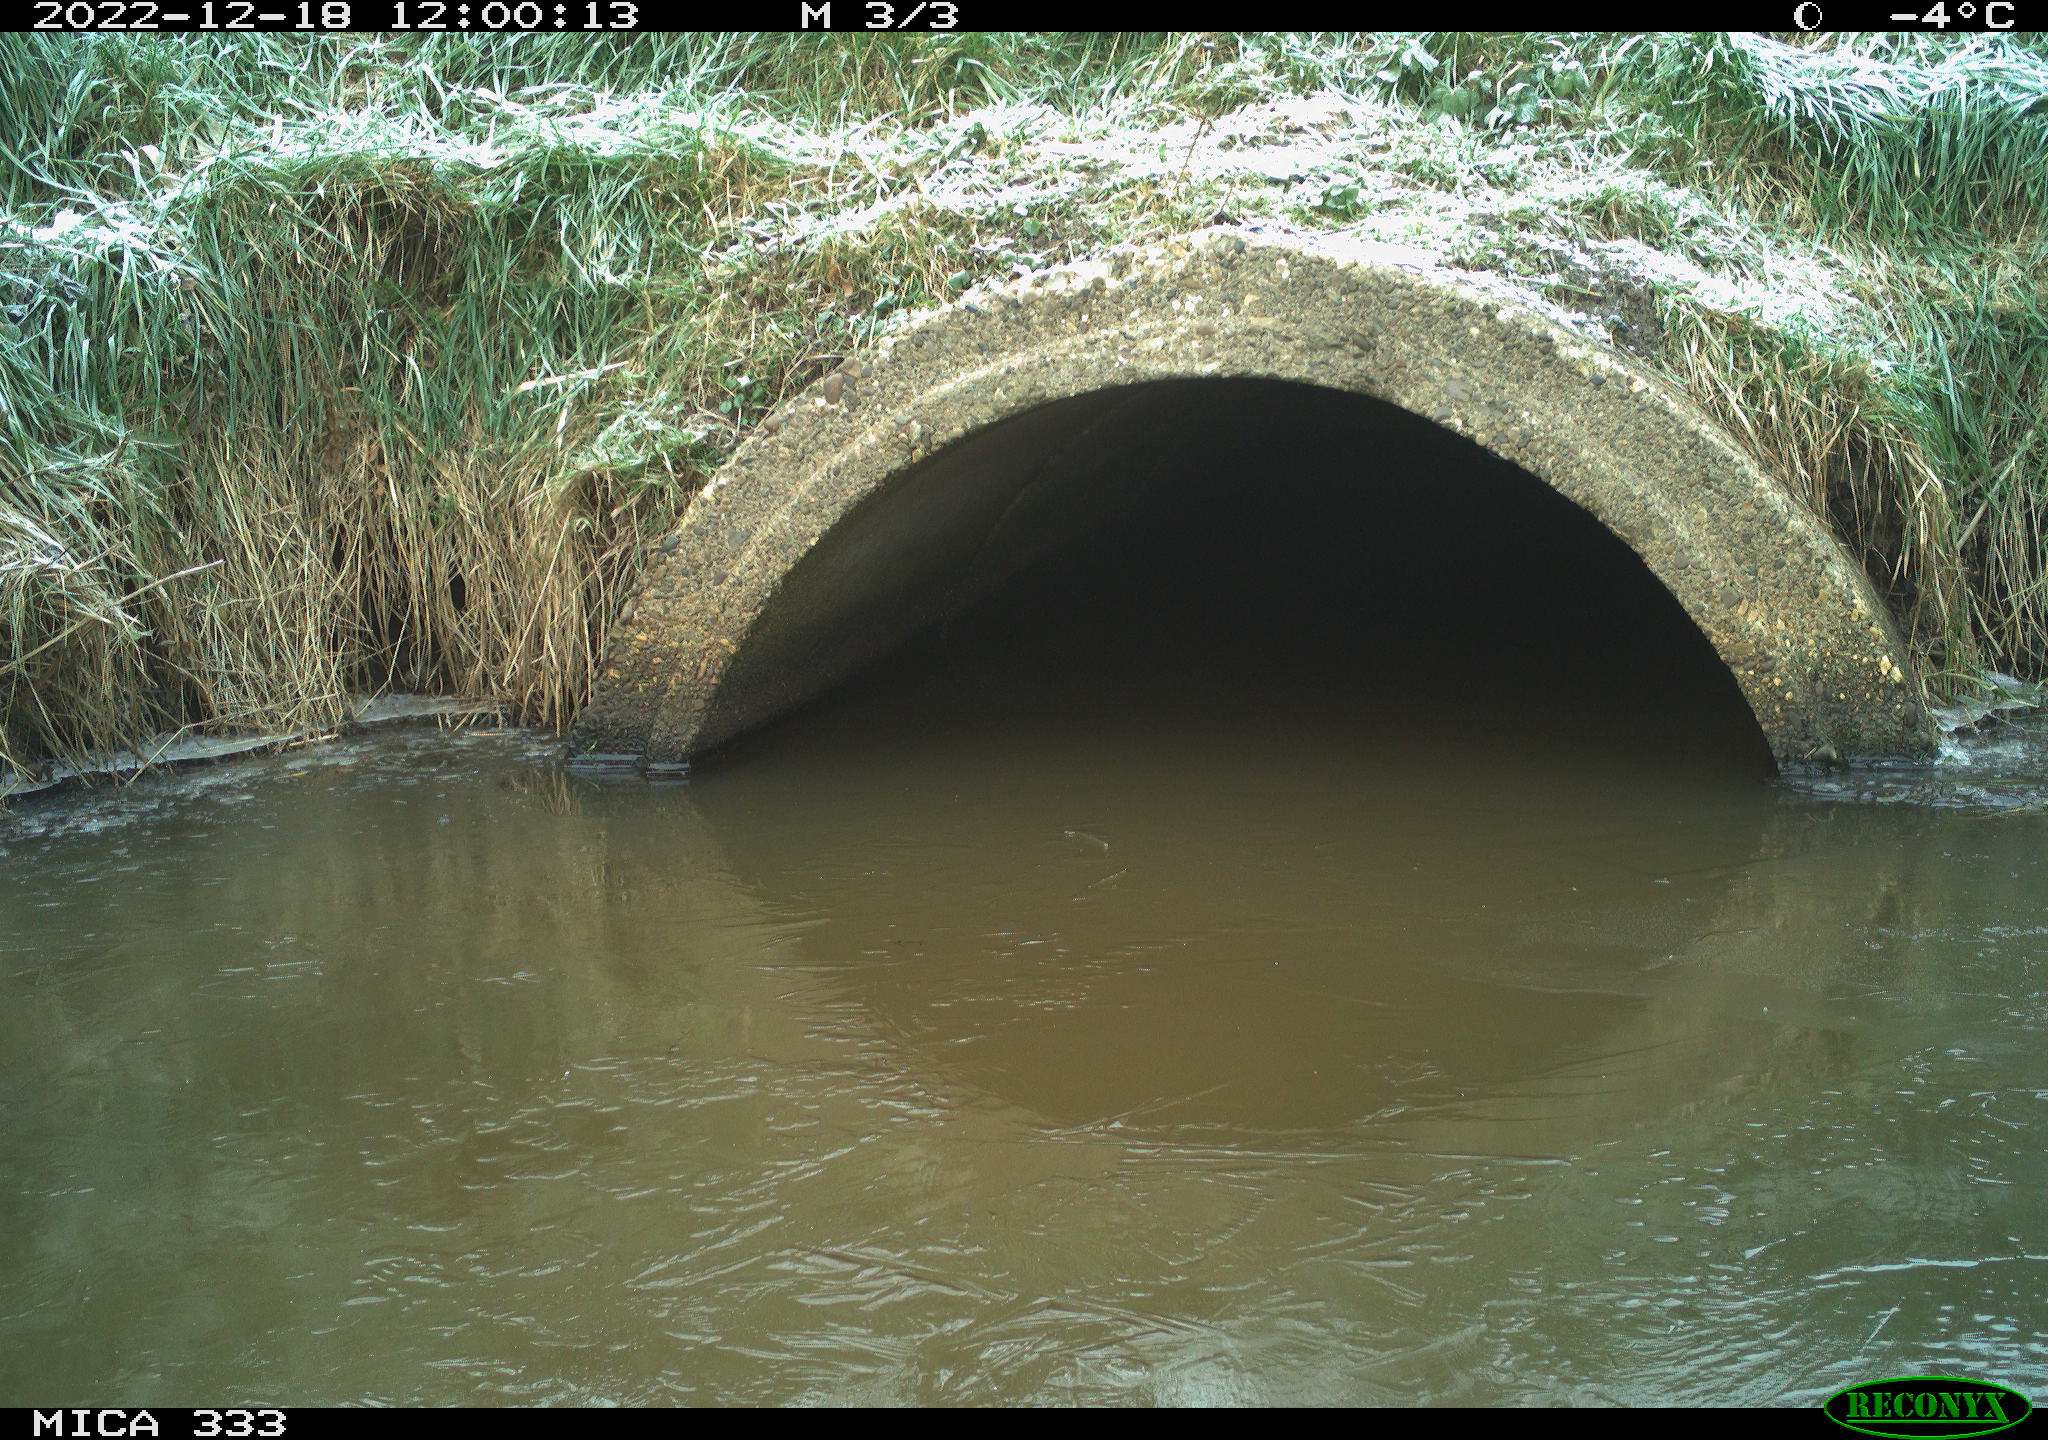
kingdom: Animalia
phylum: Chordata
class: Aves
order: Charadriiformes
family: Scolopacidae
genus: Gallinago
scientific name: Gallinago gallinago
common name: Common snipe
